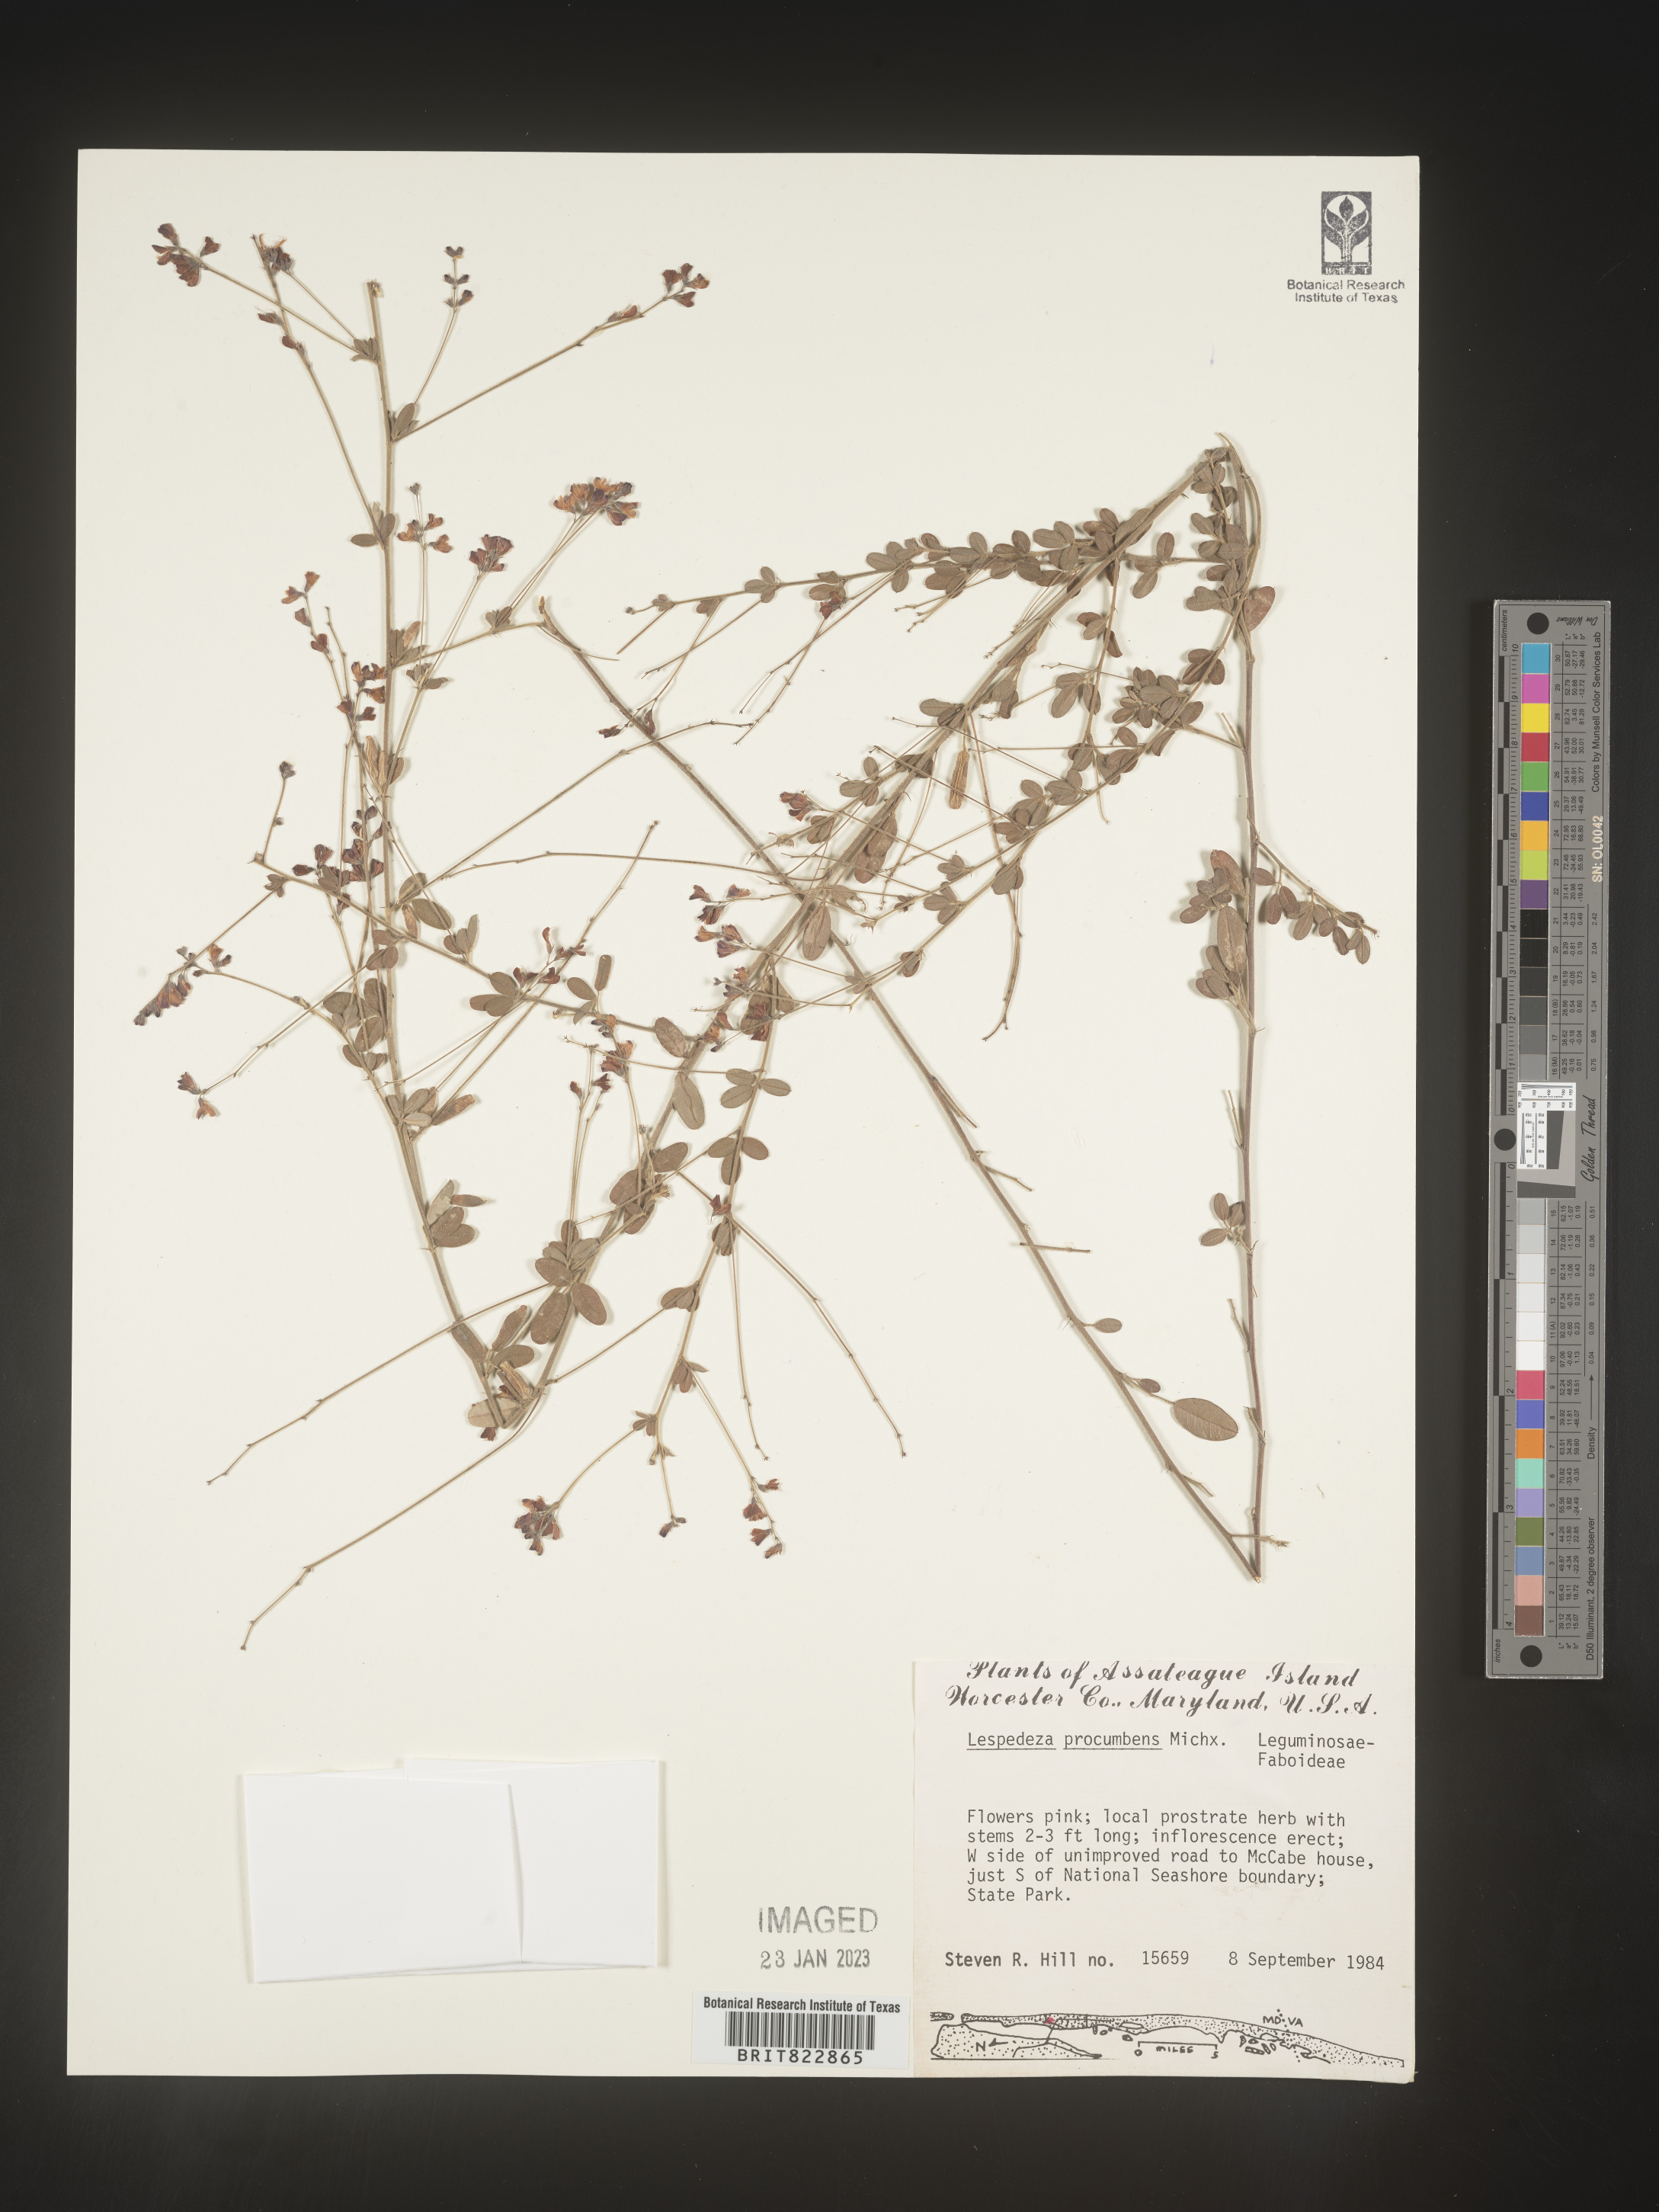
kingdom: Plantae
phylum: Tracheophyta
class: Magnoliopsida
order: Fabales
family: Fabaceae
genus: Lespedeza
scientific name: Lespedeza procumbens
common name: Downy trailing bush-clover
